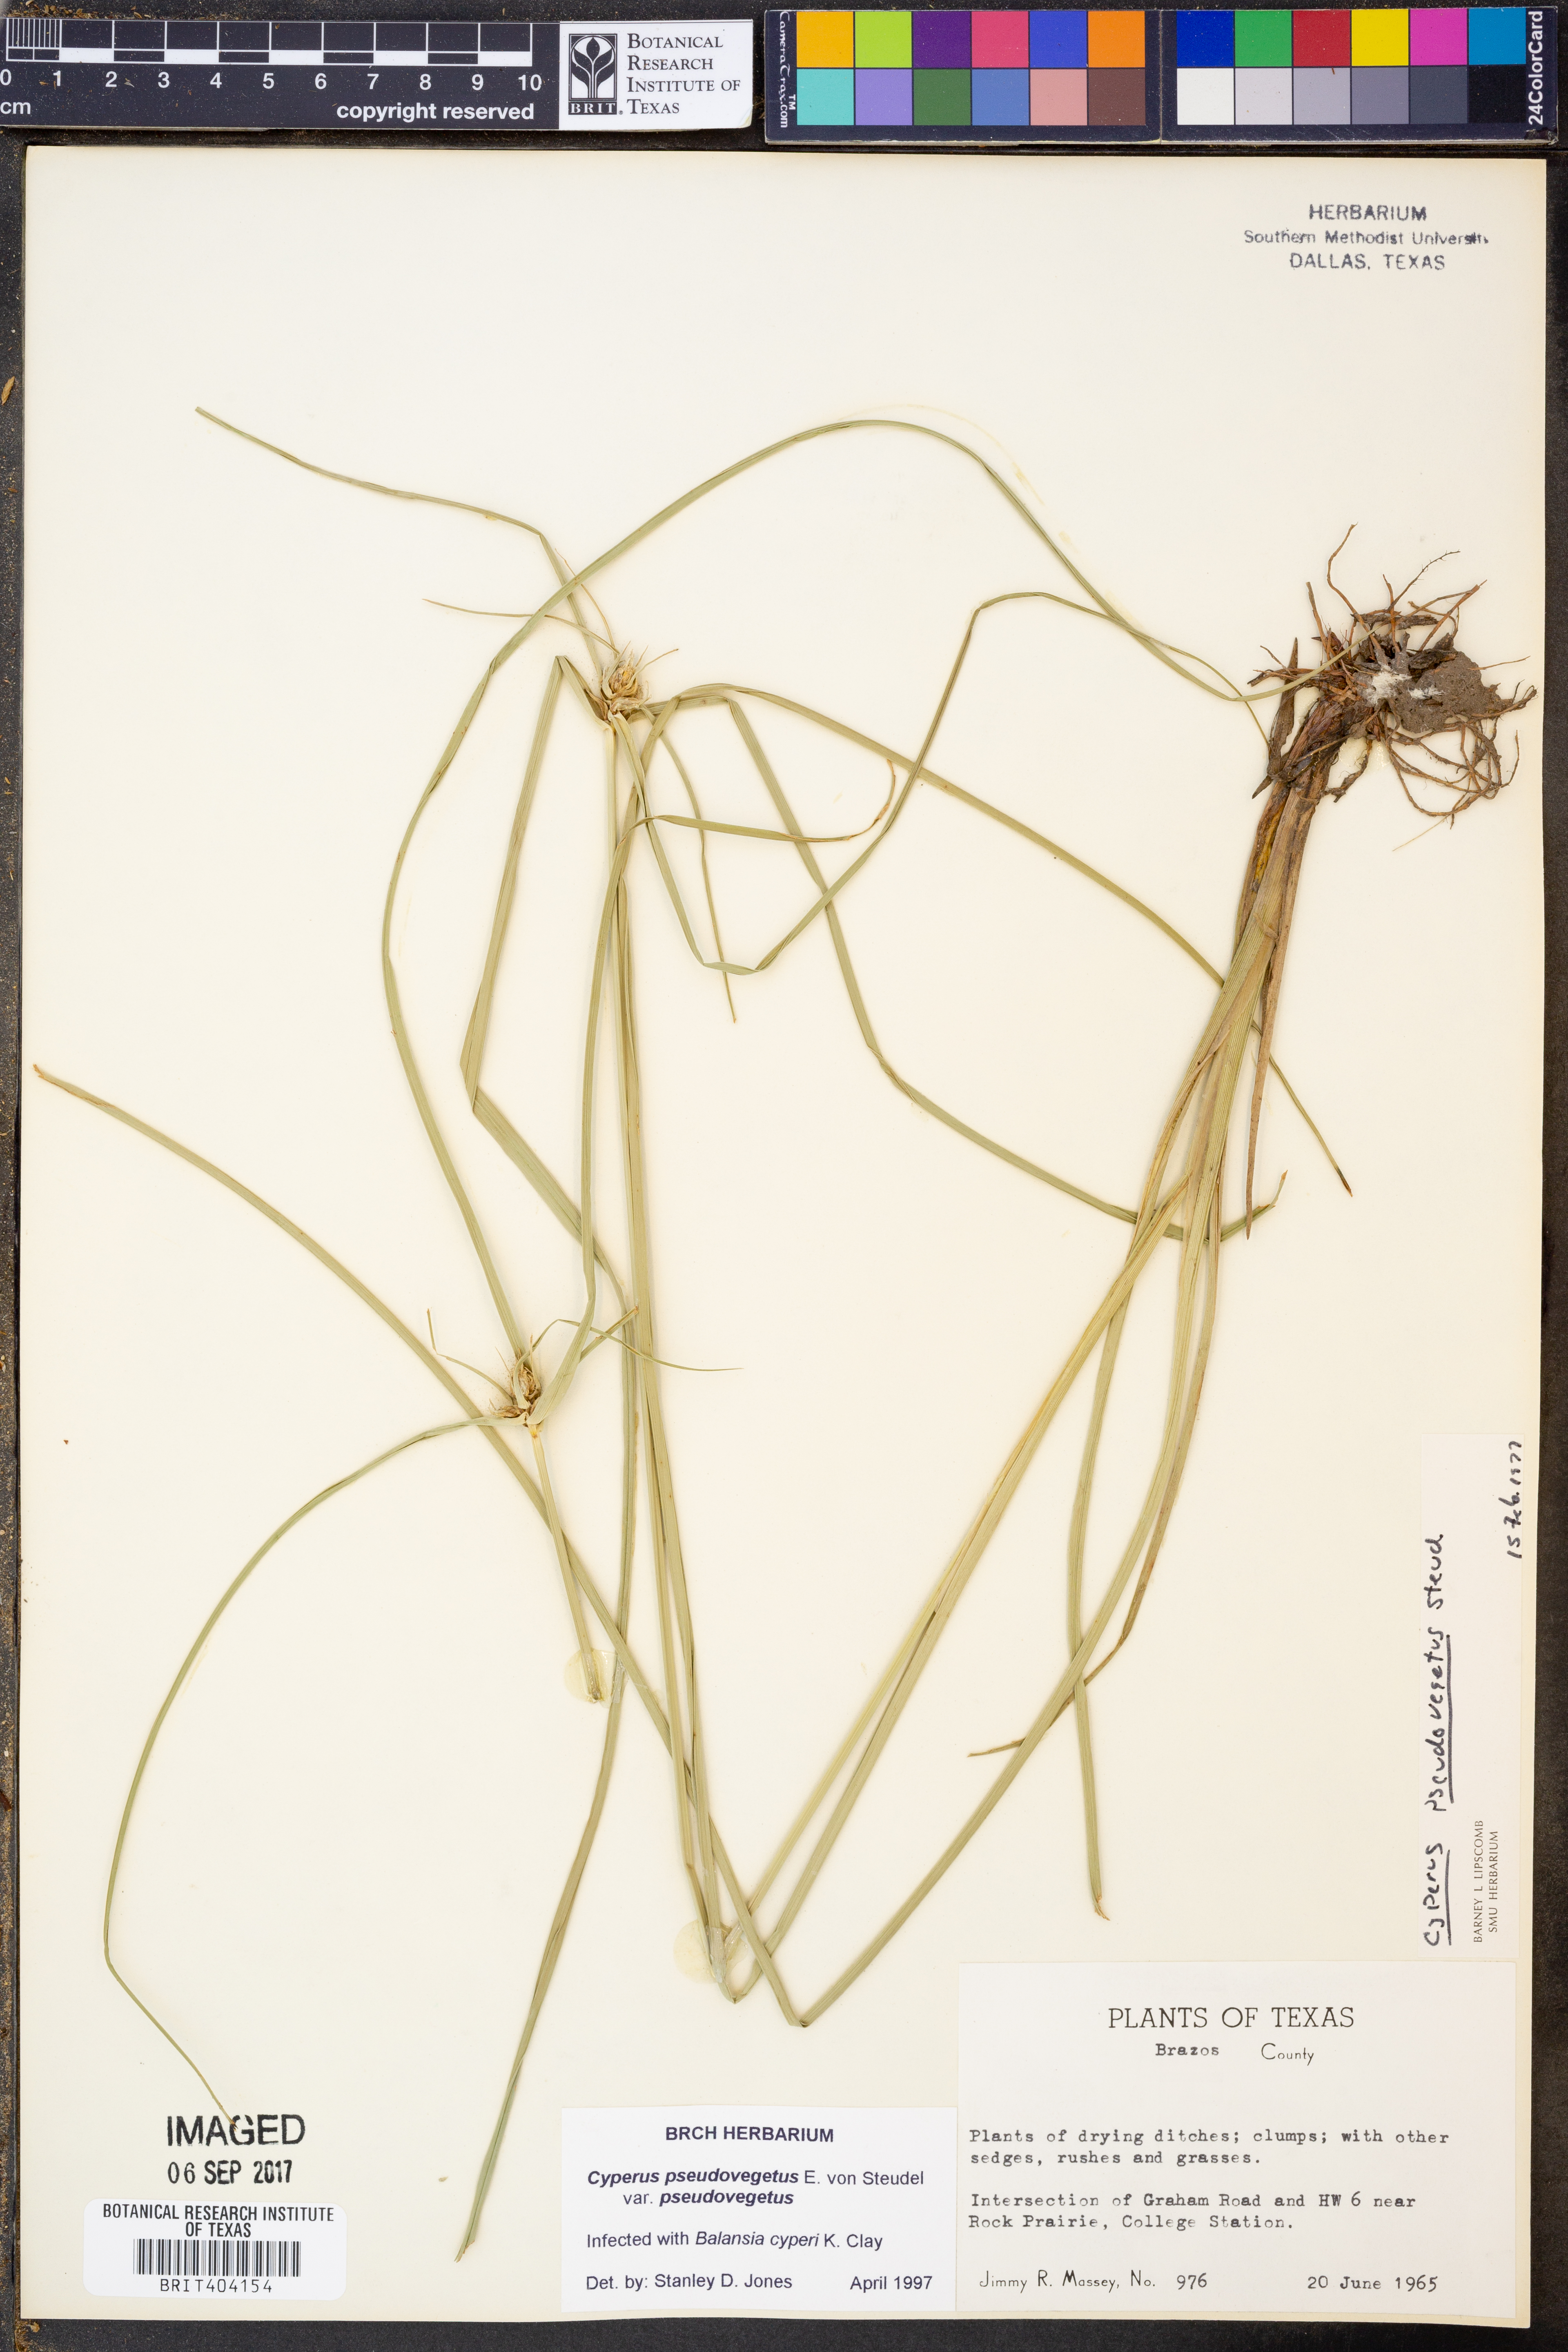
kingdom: Plantae
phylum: Tracheophyta
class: Liliopsida
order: Poales
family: Cyperaceae
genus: Cyperus
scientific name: Cyperus pseudovegetus
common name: Marsh flat sedge
